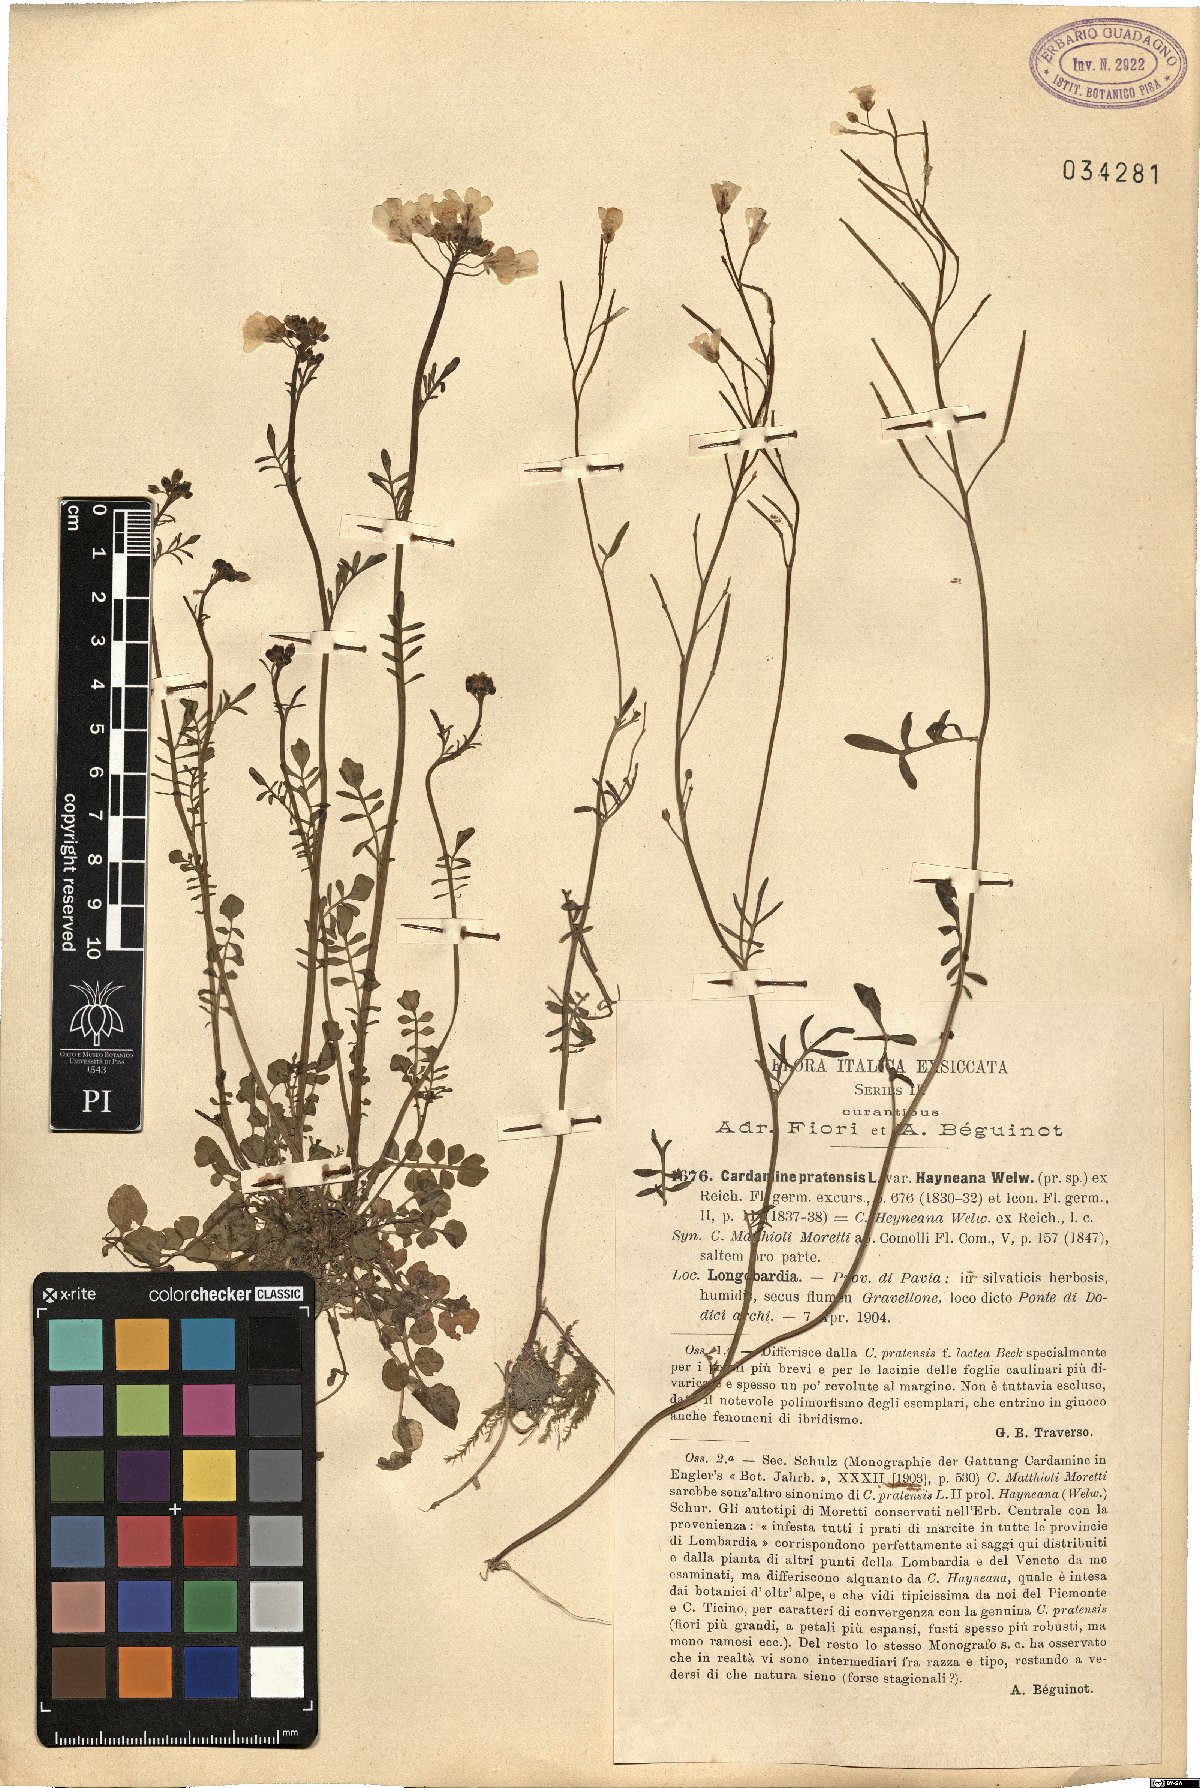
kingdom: Plantae
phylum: Tracheophyta
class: Magnoliopsida
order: Brassicales
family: Brassicaceae
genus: Cardamine
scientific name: Cardamine matthioli
